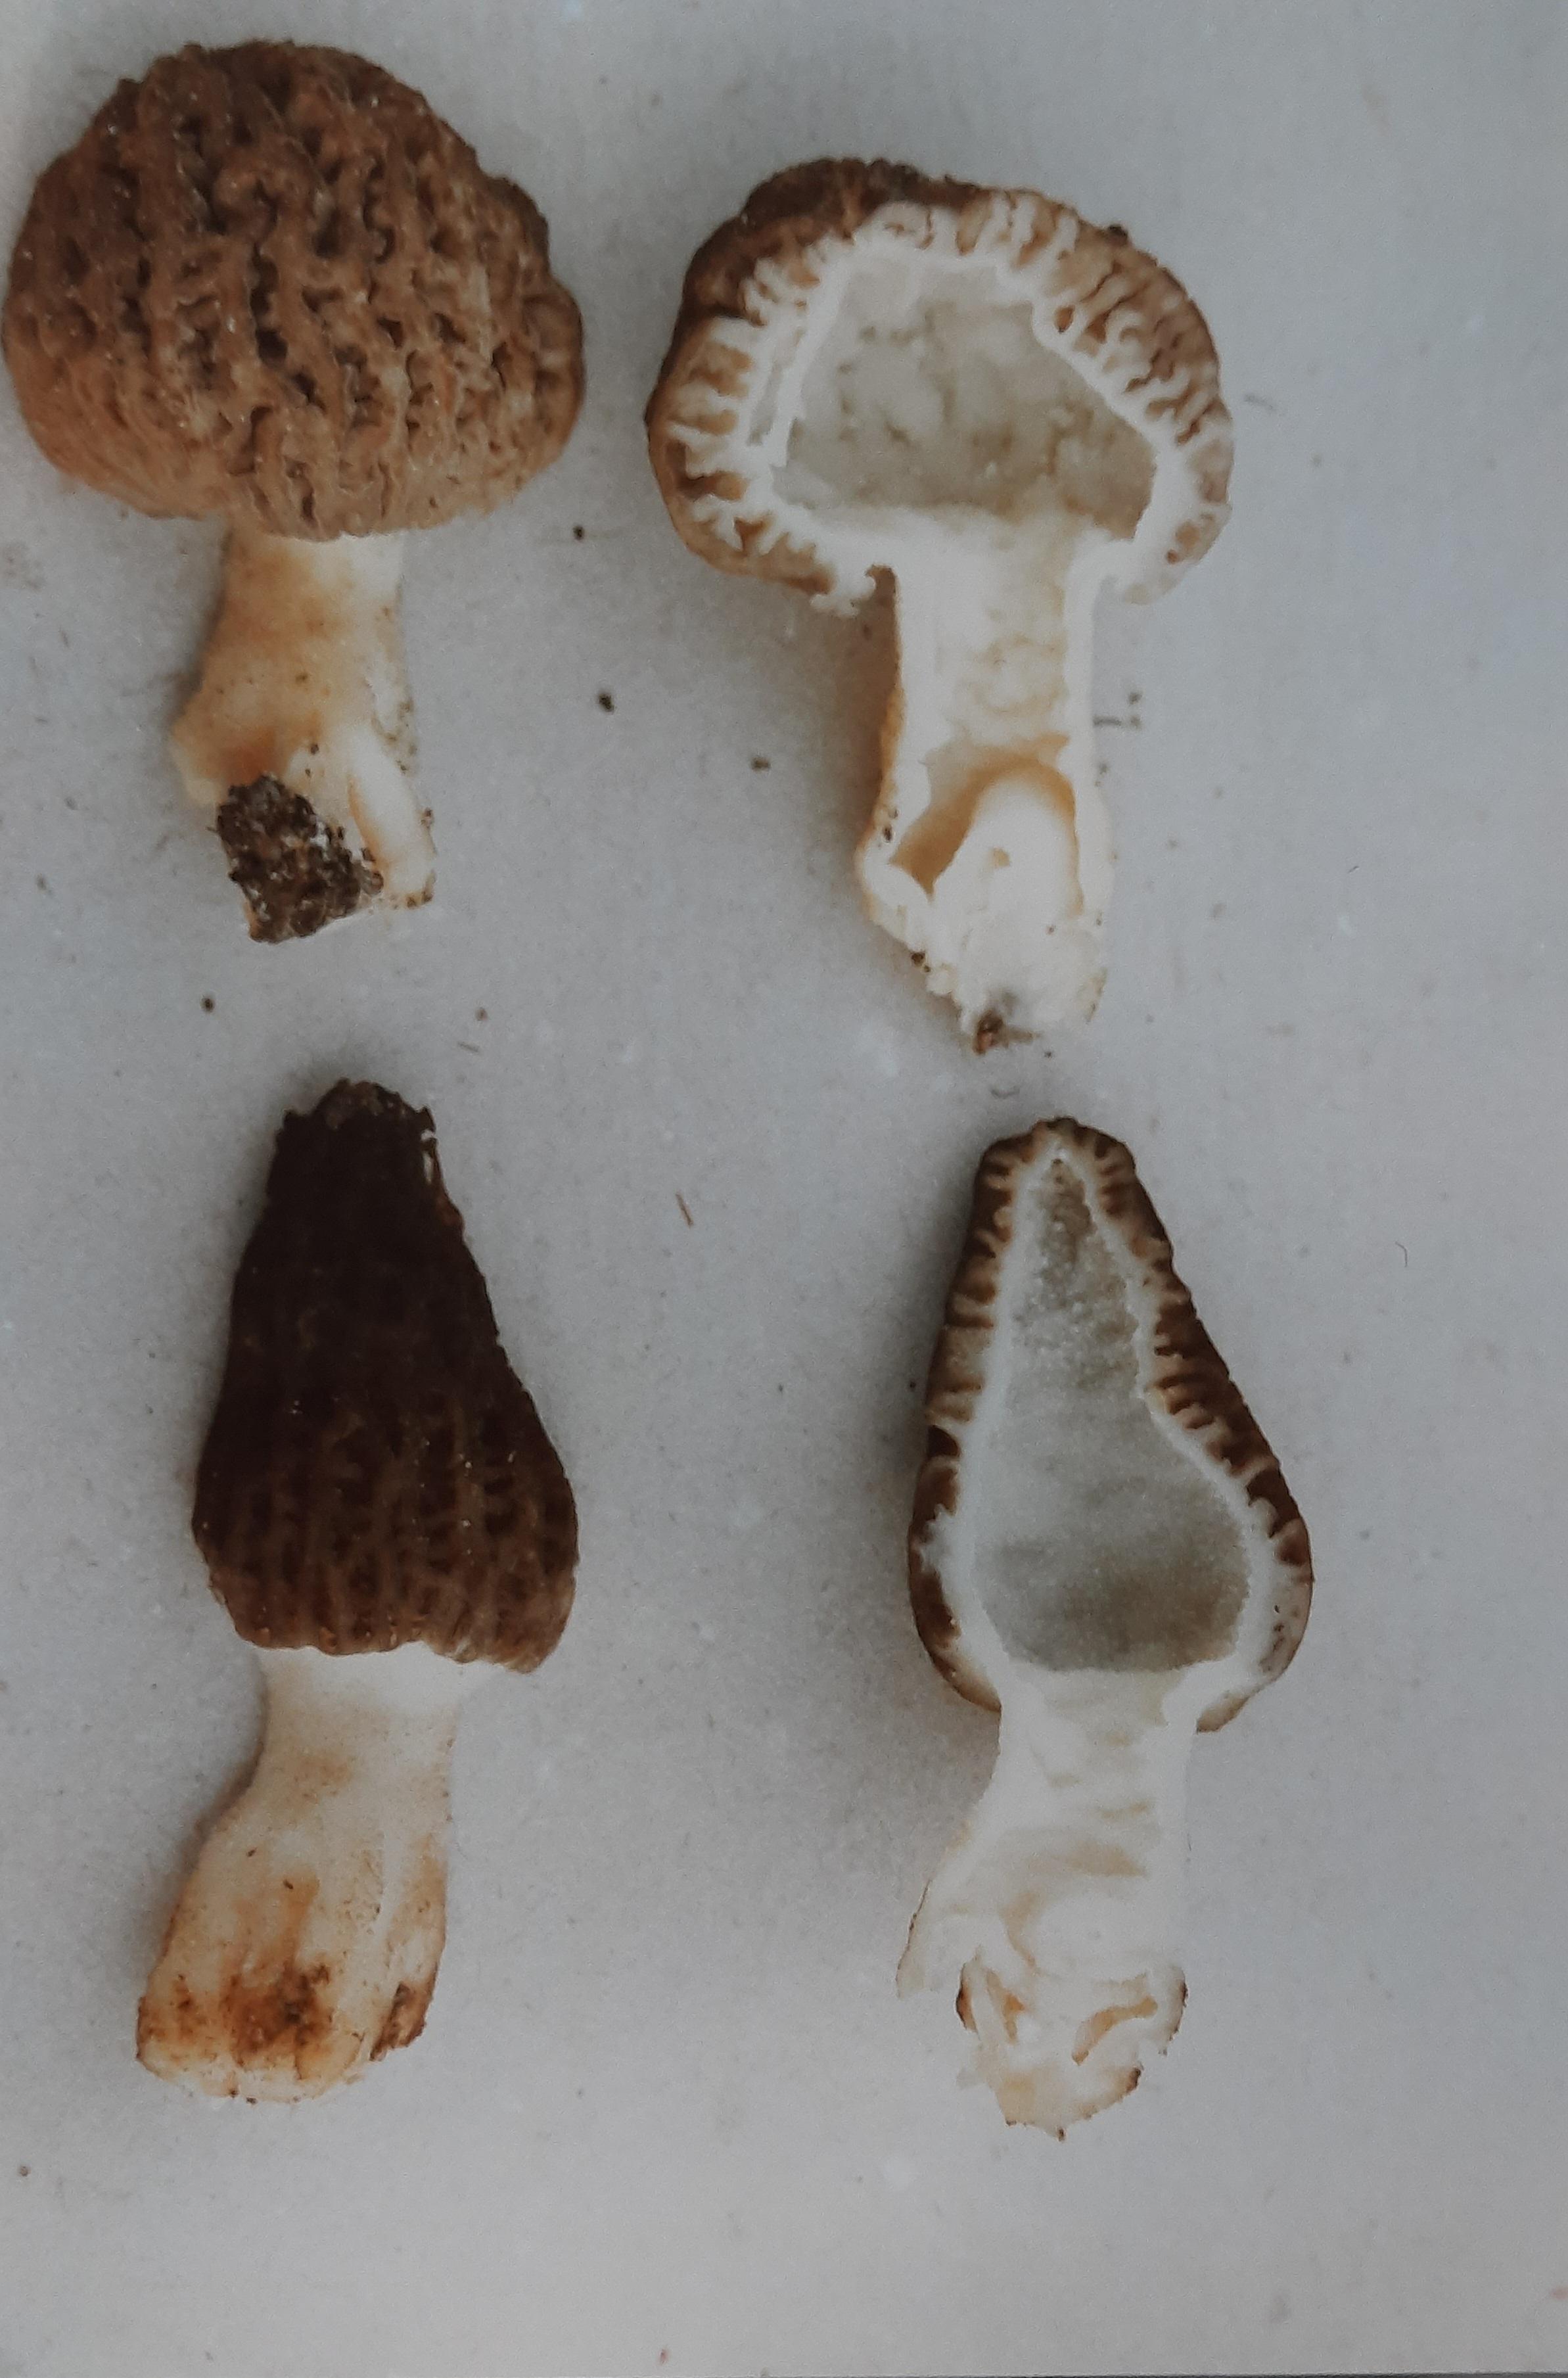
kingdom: Fungi
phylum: Ascomycota
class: Pezizomycetes
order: Pezizales
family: Morchellaceae
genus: Morchella
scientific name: Morchella importuna
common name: Landscaping black morel
